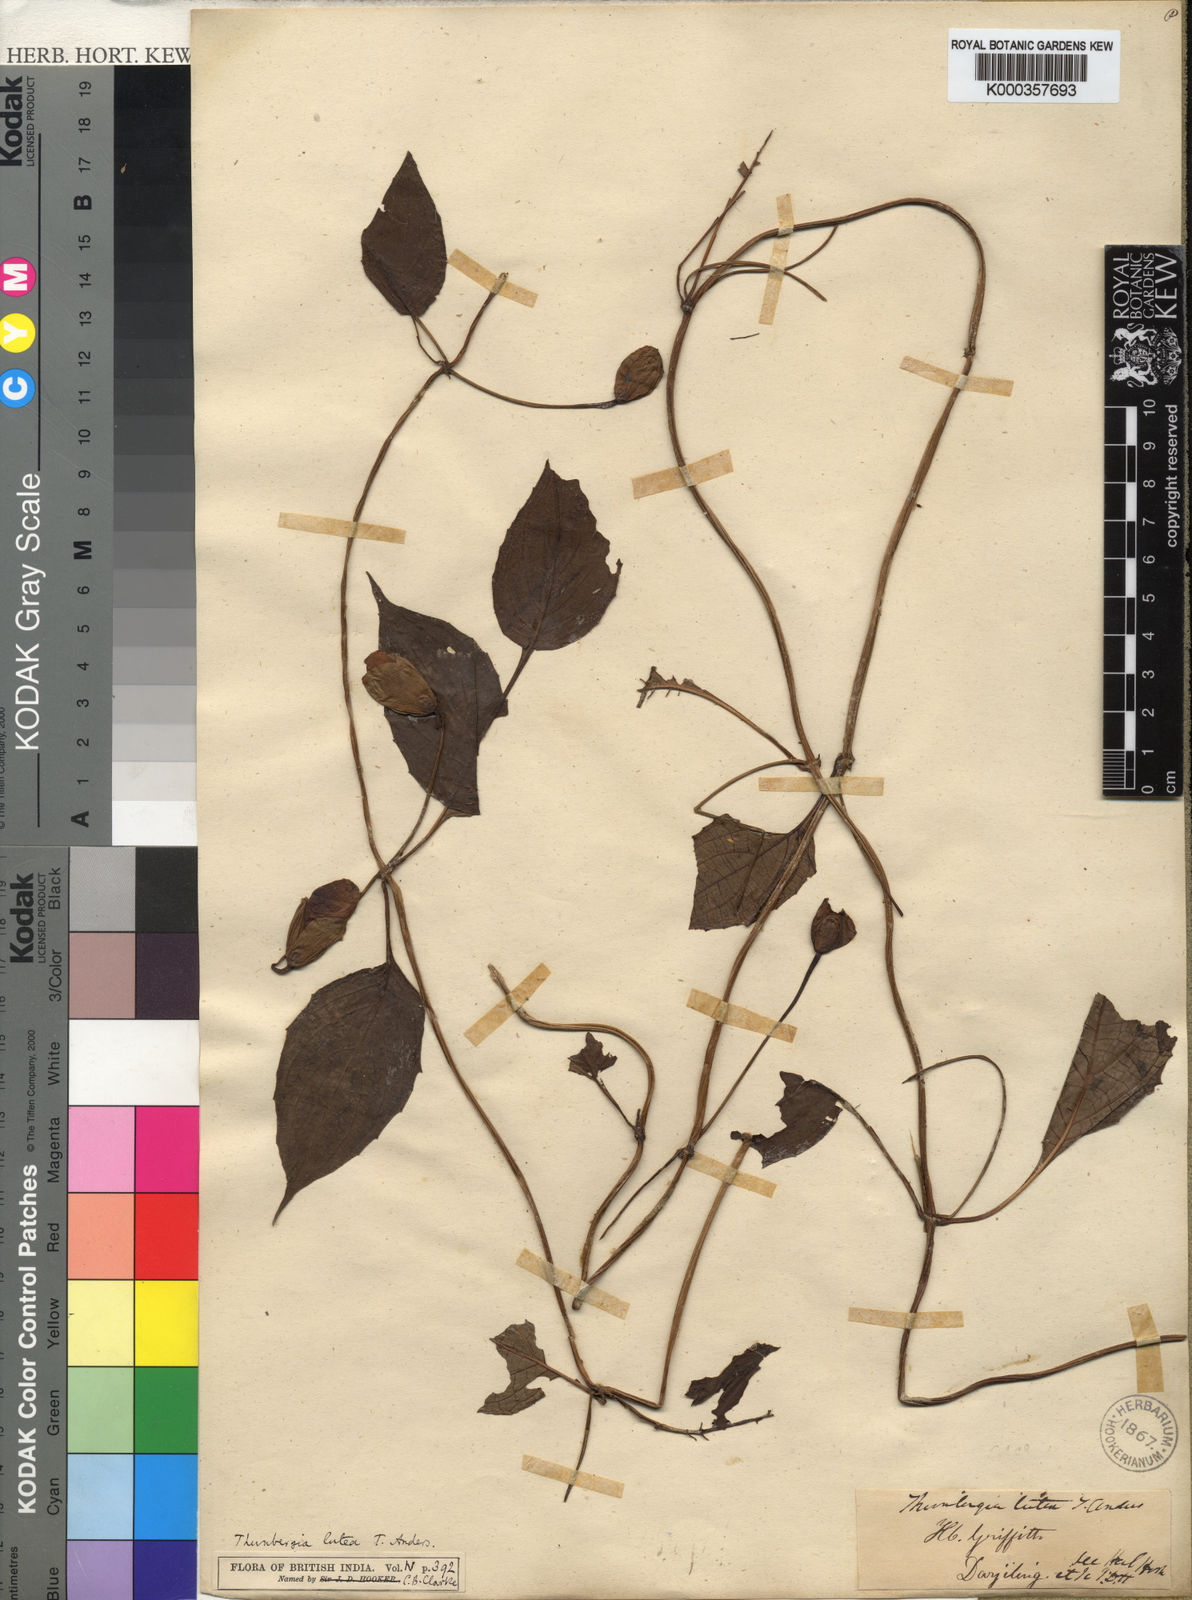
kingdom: Plantae
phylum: Tracheophyta
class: Magnoliopsida
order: Lamiales
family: Acanthaceae
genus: Thunbergia
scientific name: Thunbergia lutea
